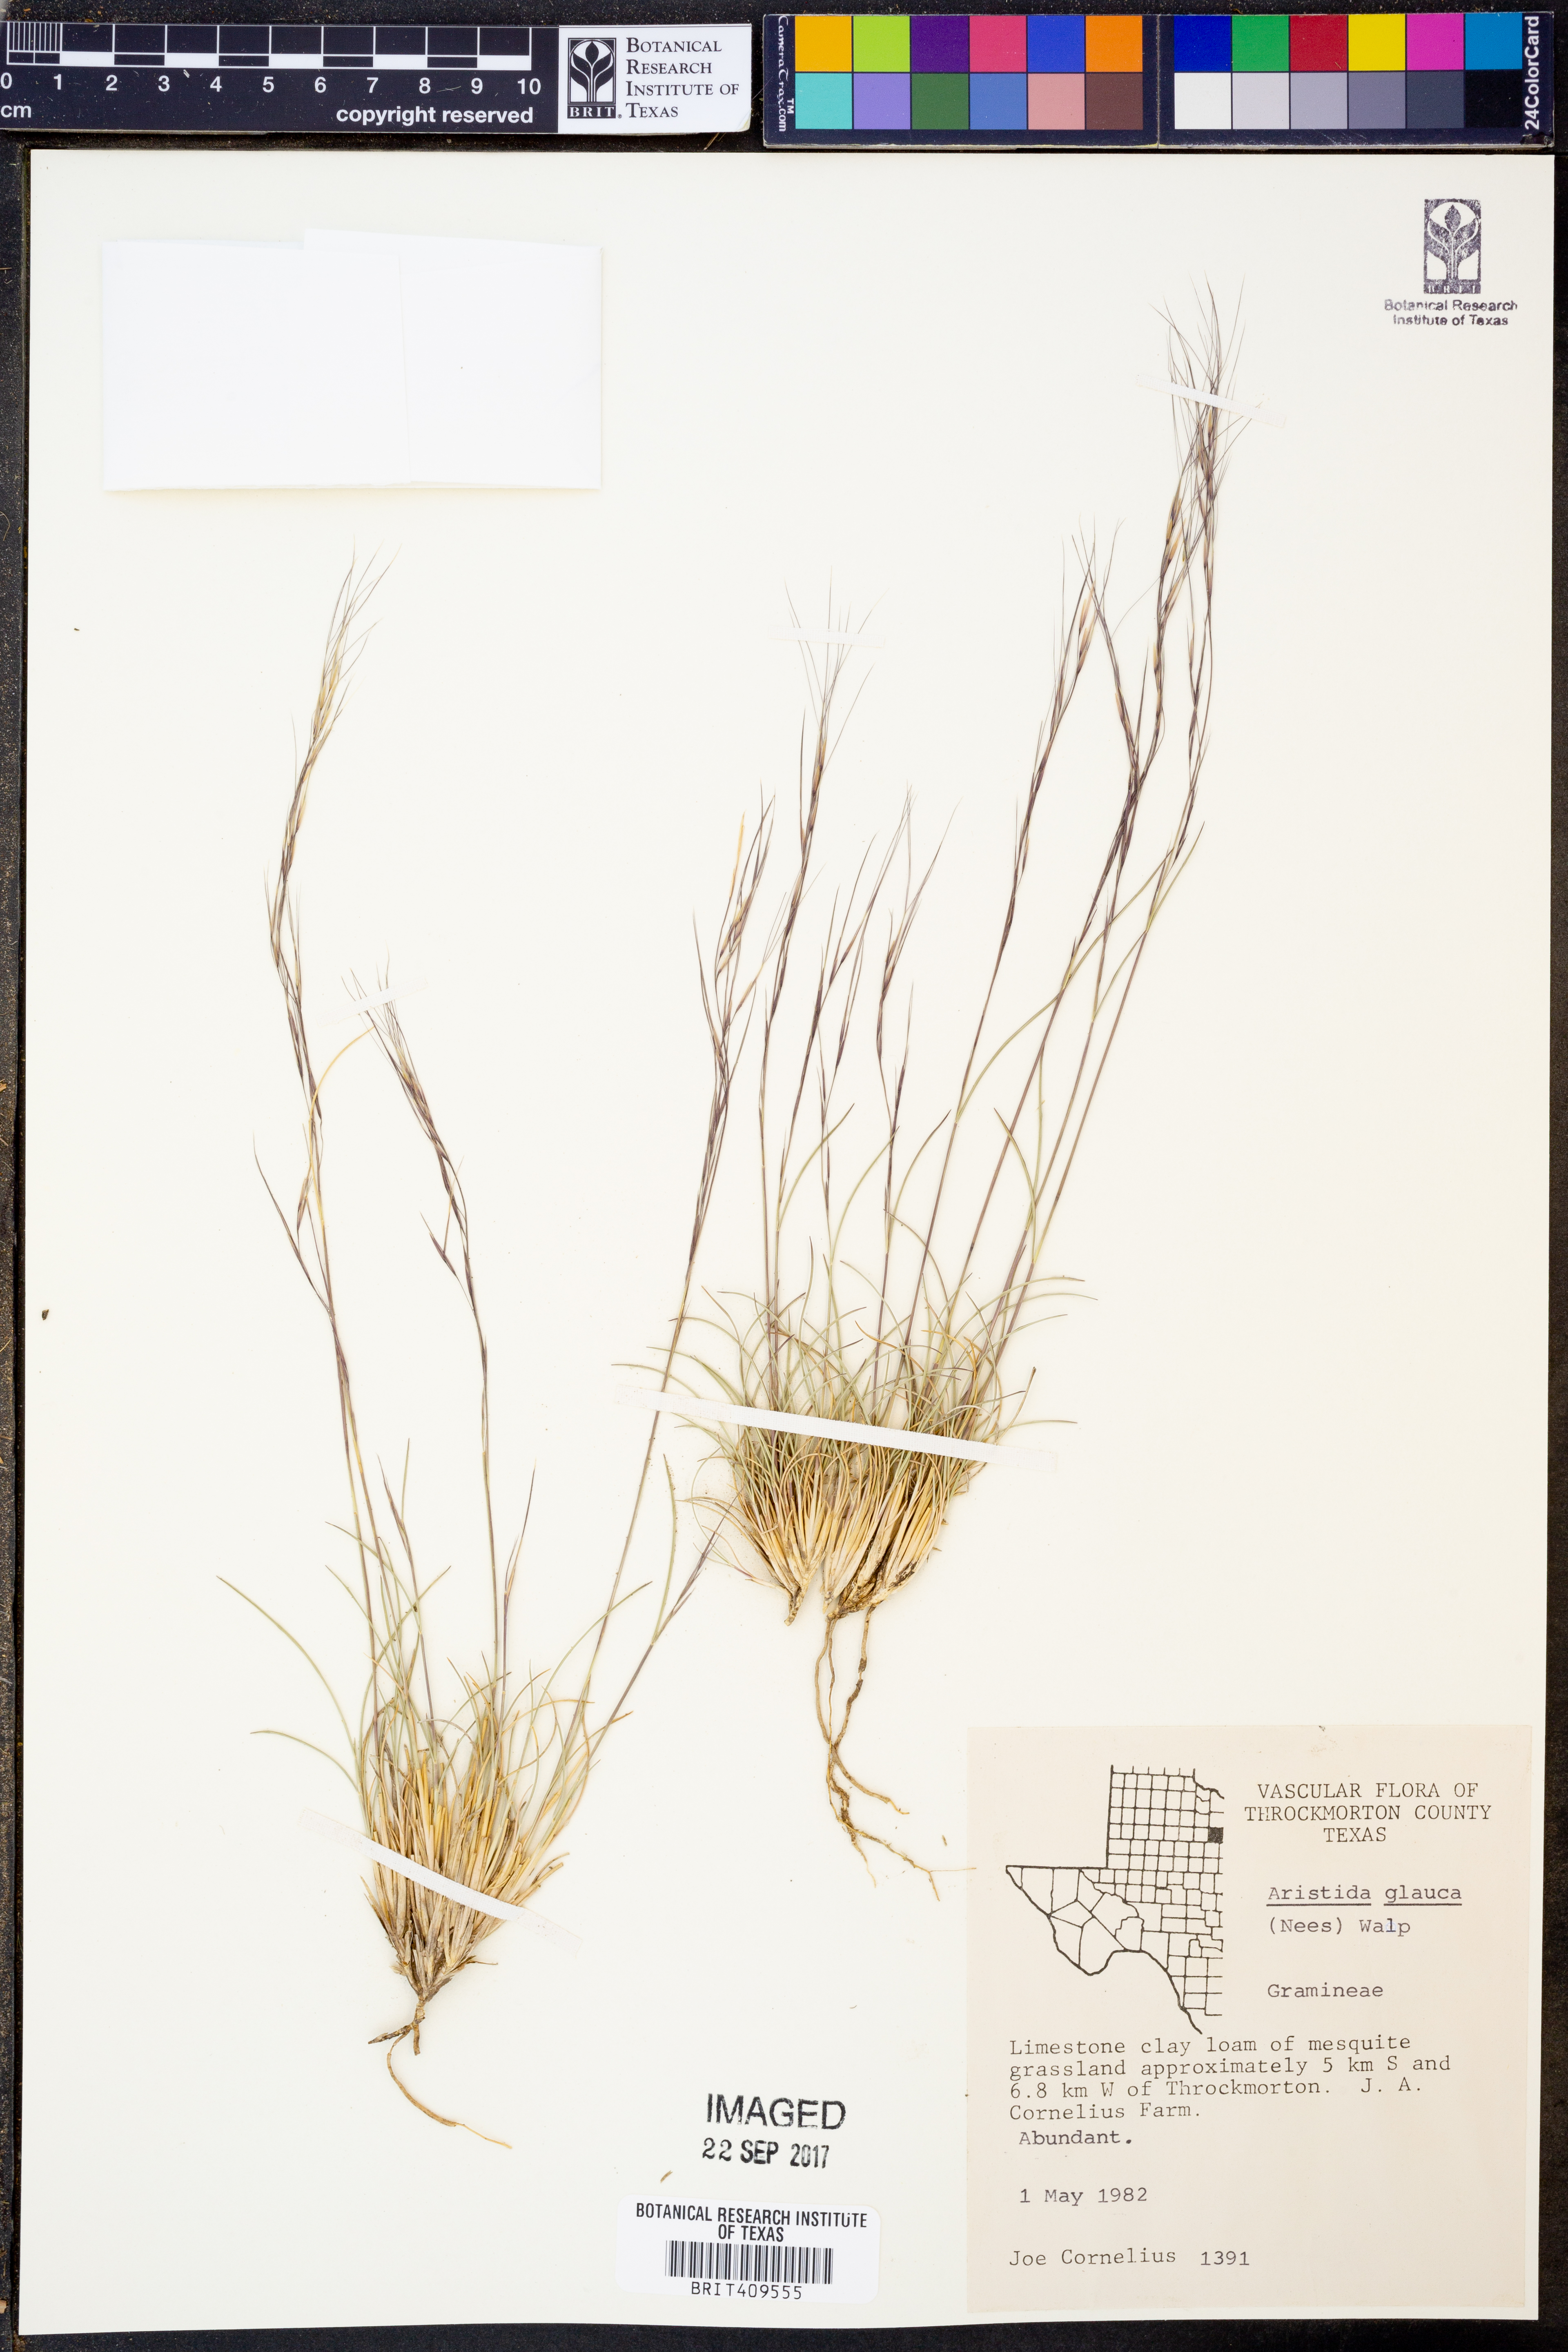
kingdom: Plantae
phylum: Tracheophyta
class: Liliopsida
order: Poales
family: Poaceae
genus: Aristida
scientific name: Aristida glauca
